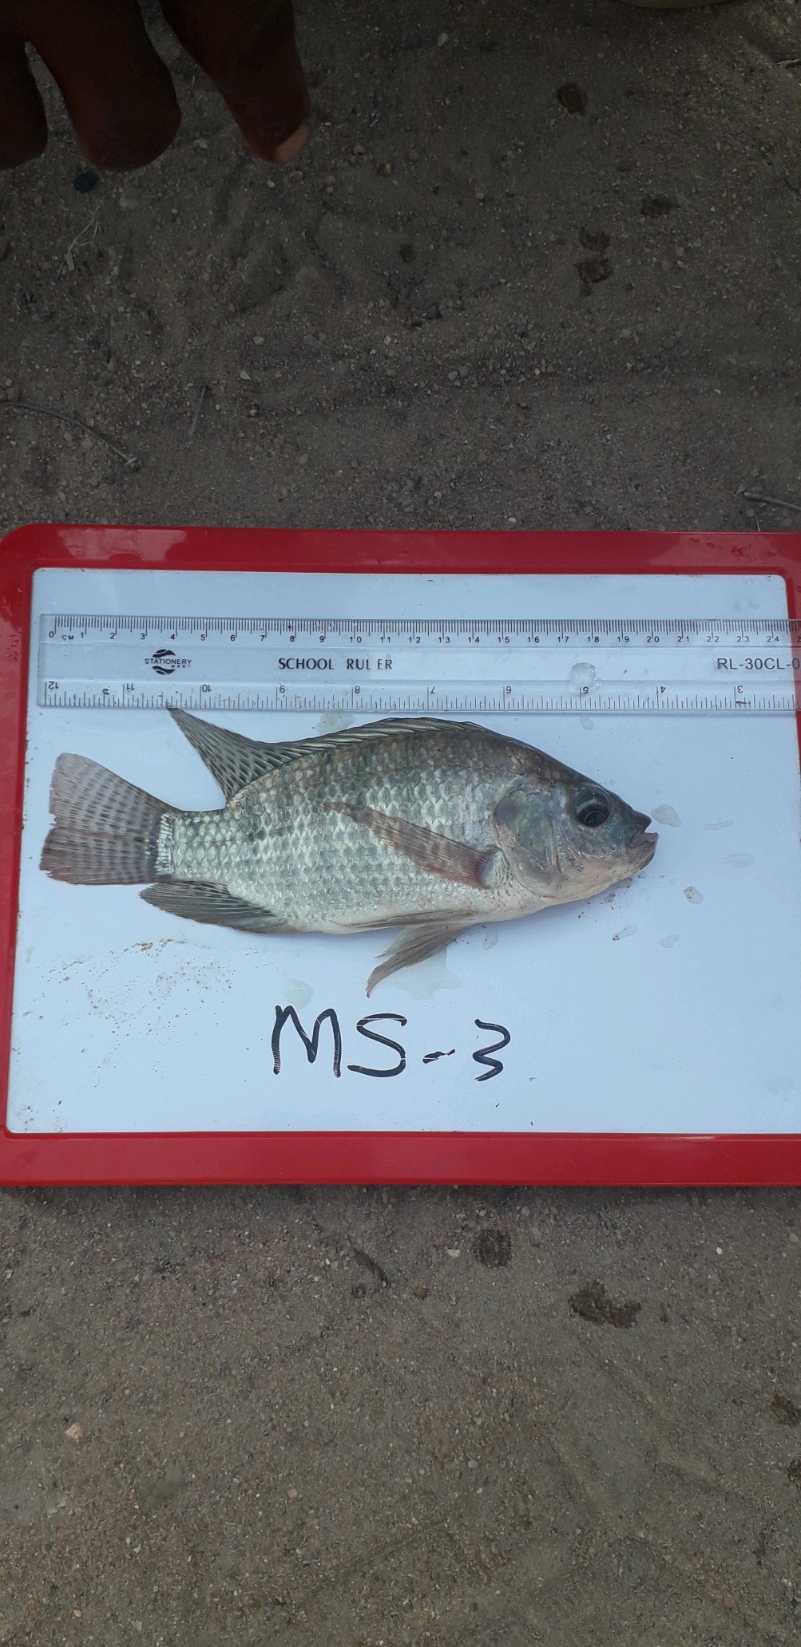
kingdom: Animalia
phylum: Chordata
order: Perciformes
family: Cichlidae
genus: Oreochromis
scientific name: Oreochromis niloticus
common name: Nile tilapia
